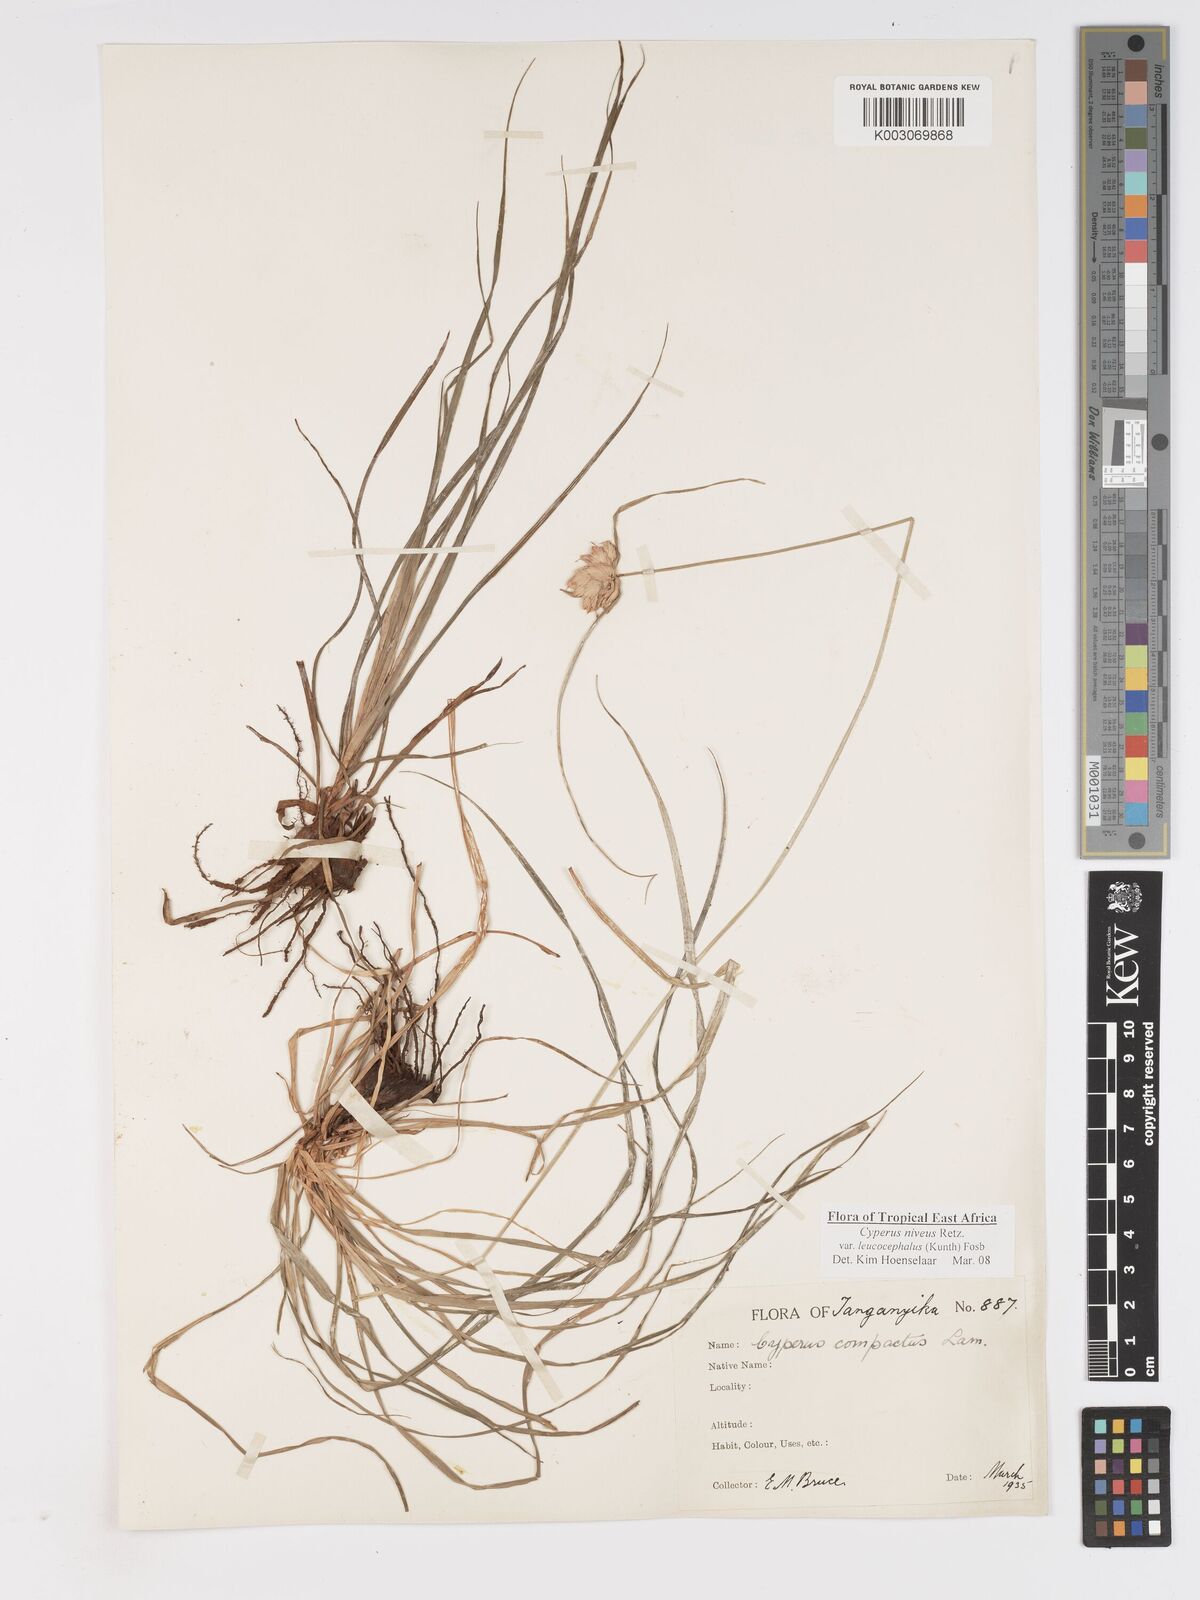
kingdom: Plantae
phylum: Tracheophyta
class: Liliopsida
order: Poales
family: Cyperaceae
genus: Cyperus
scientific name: Cyperus niveus
